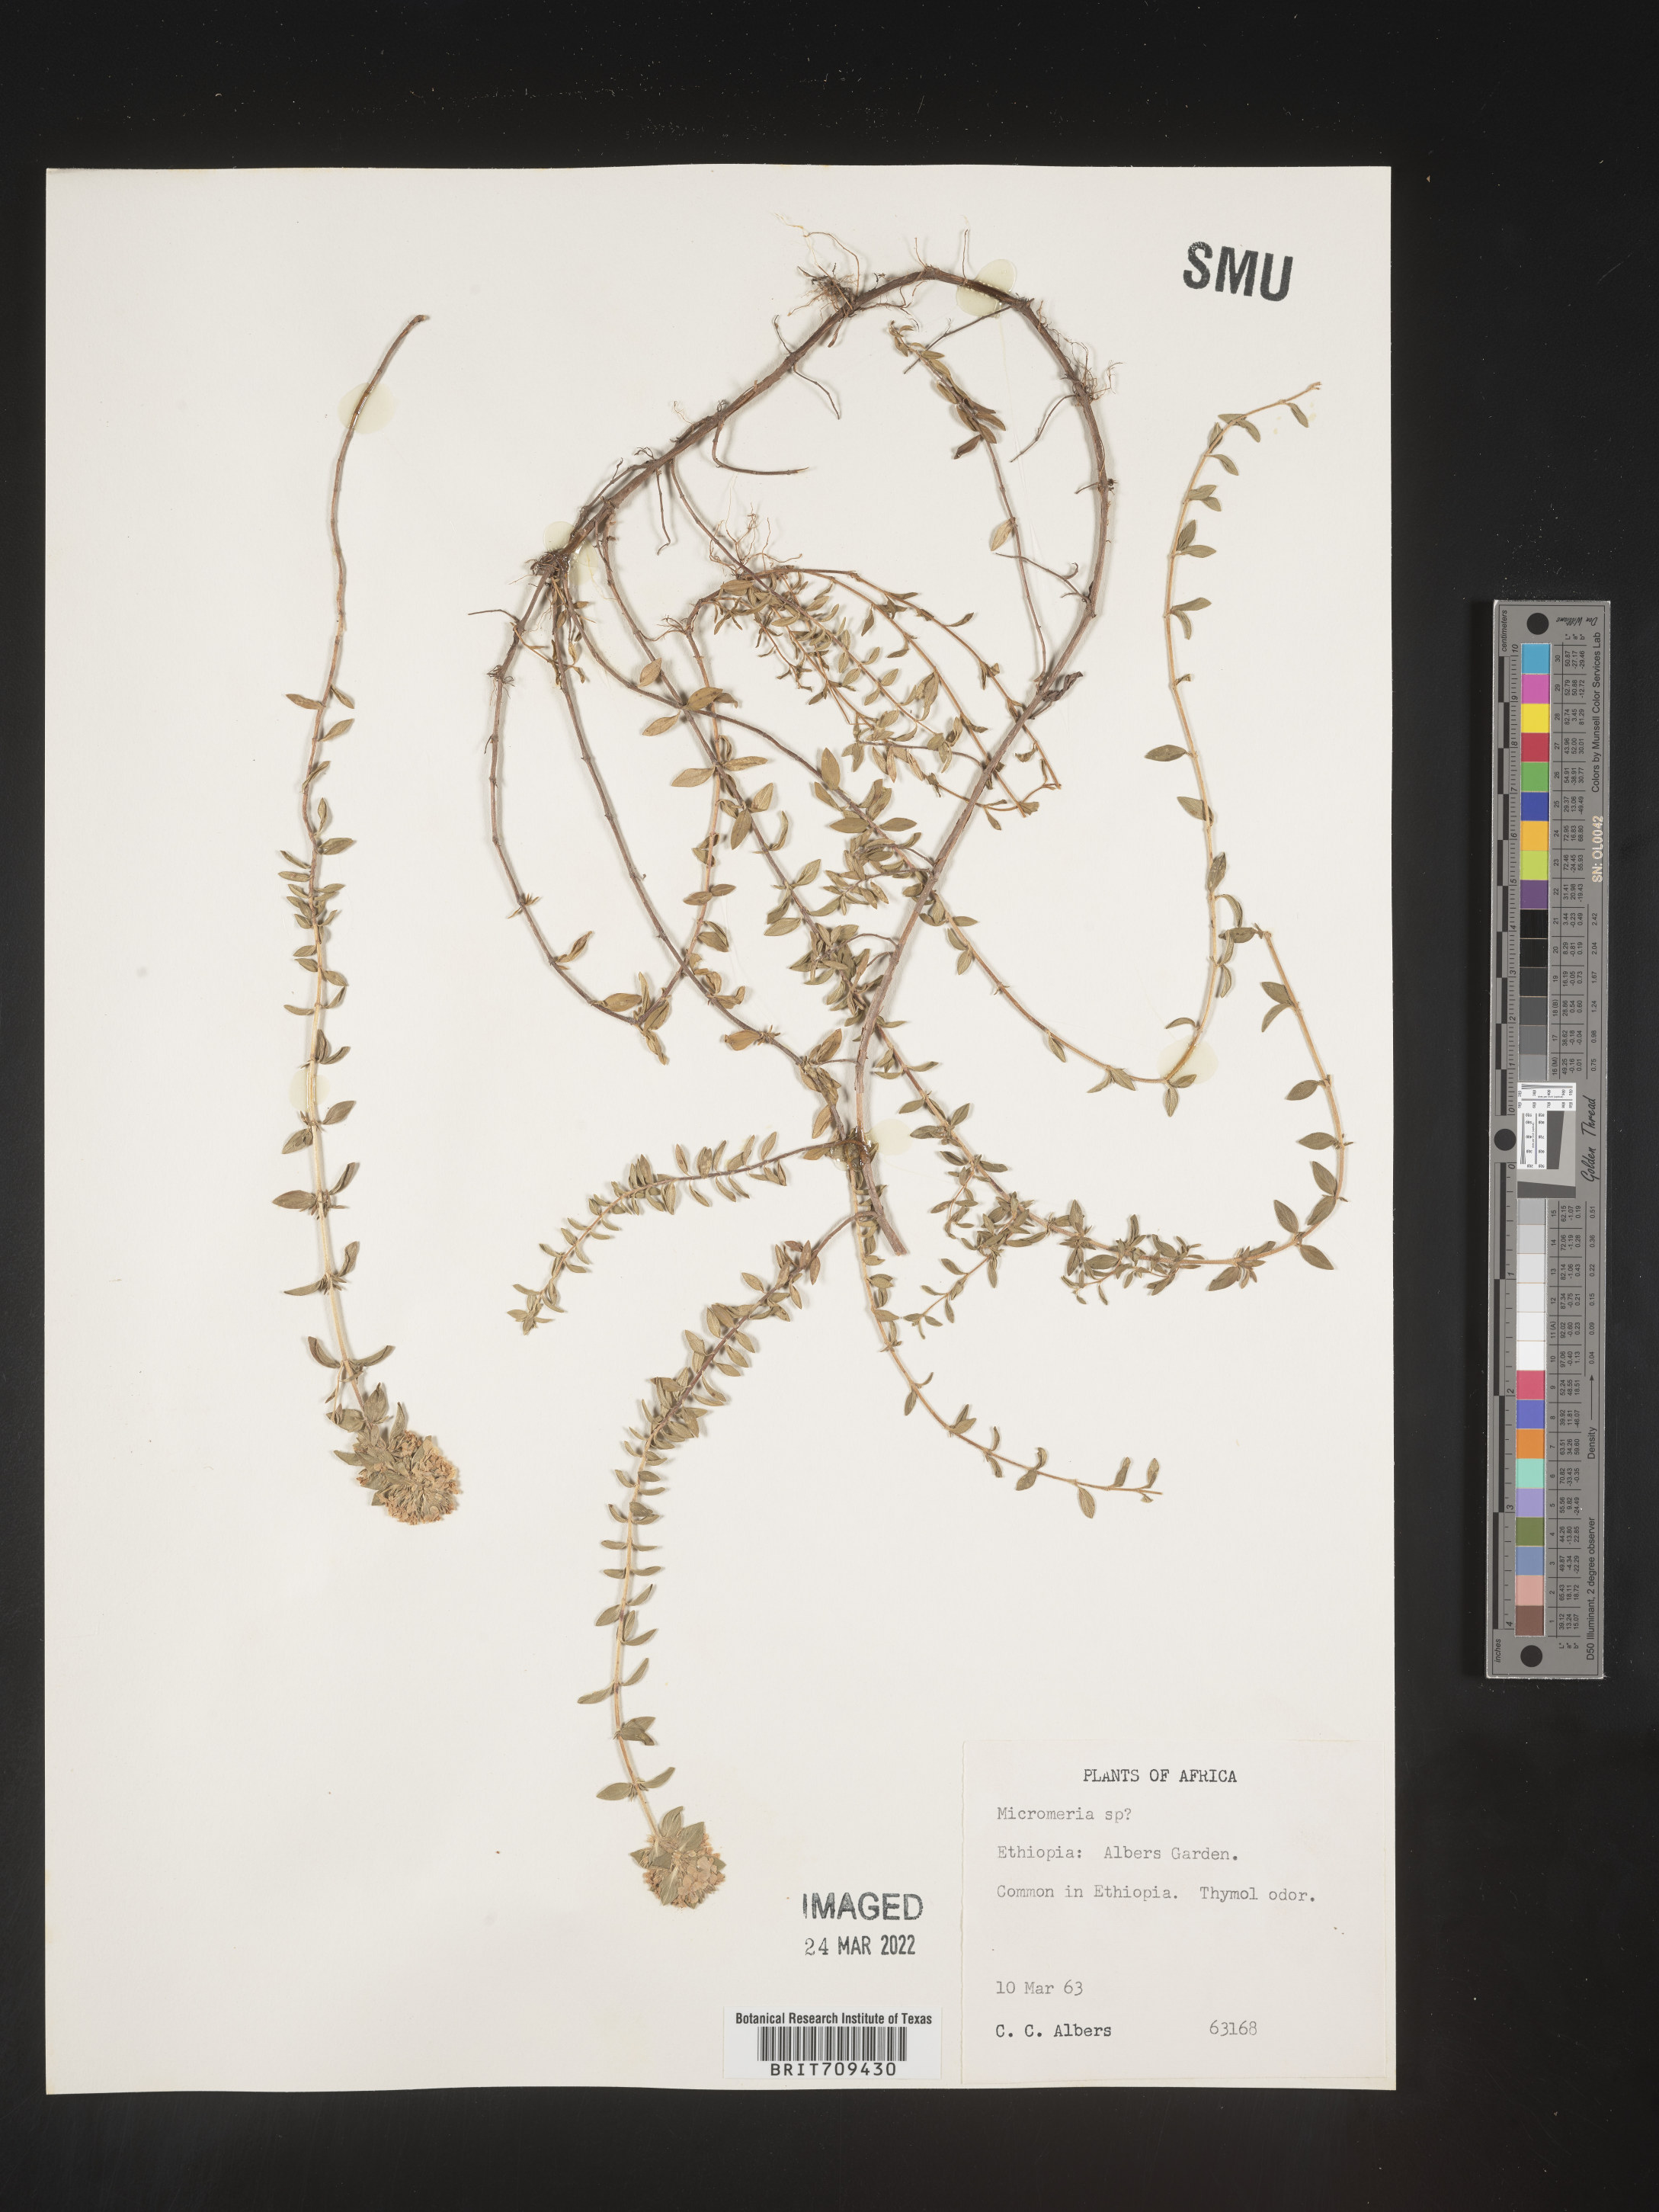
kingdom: Plantae
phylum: Tracheophyta
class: Magnoliopsida
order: Lamiales
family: Lamiaceae
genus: Micromeria
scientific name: Micromeria
